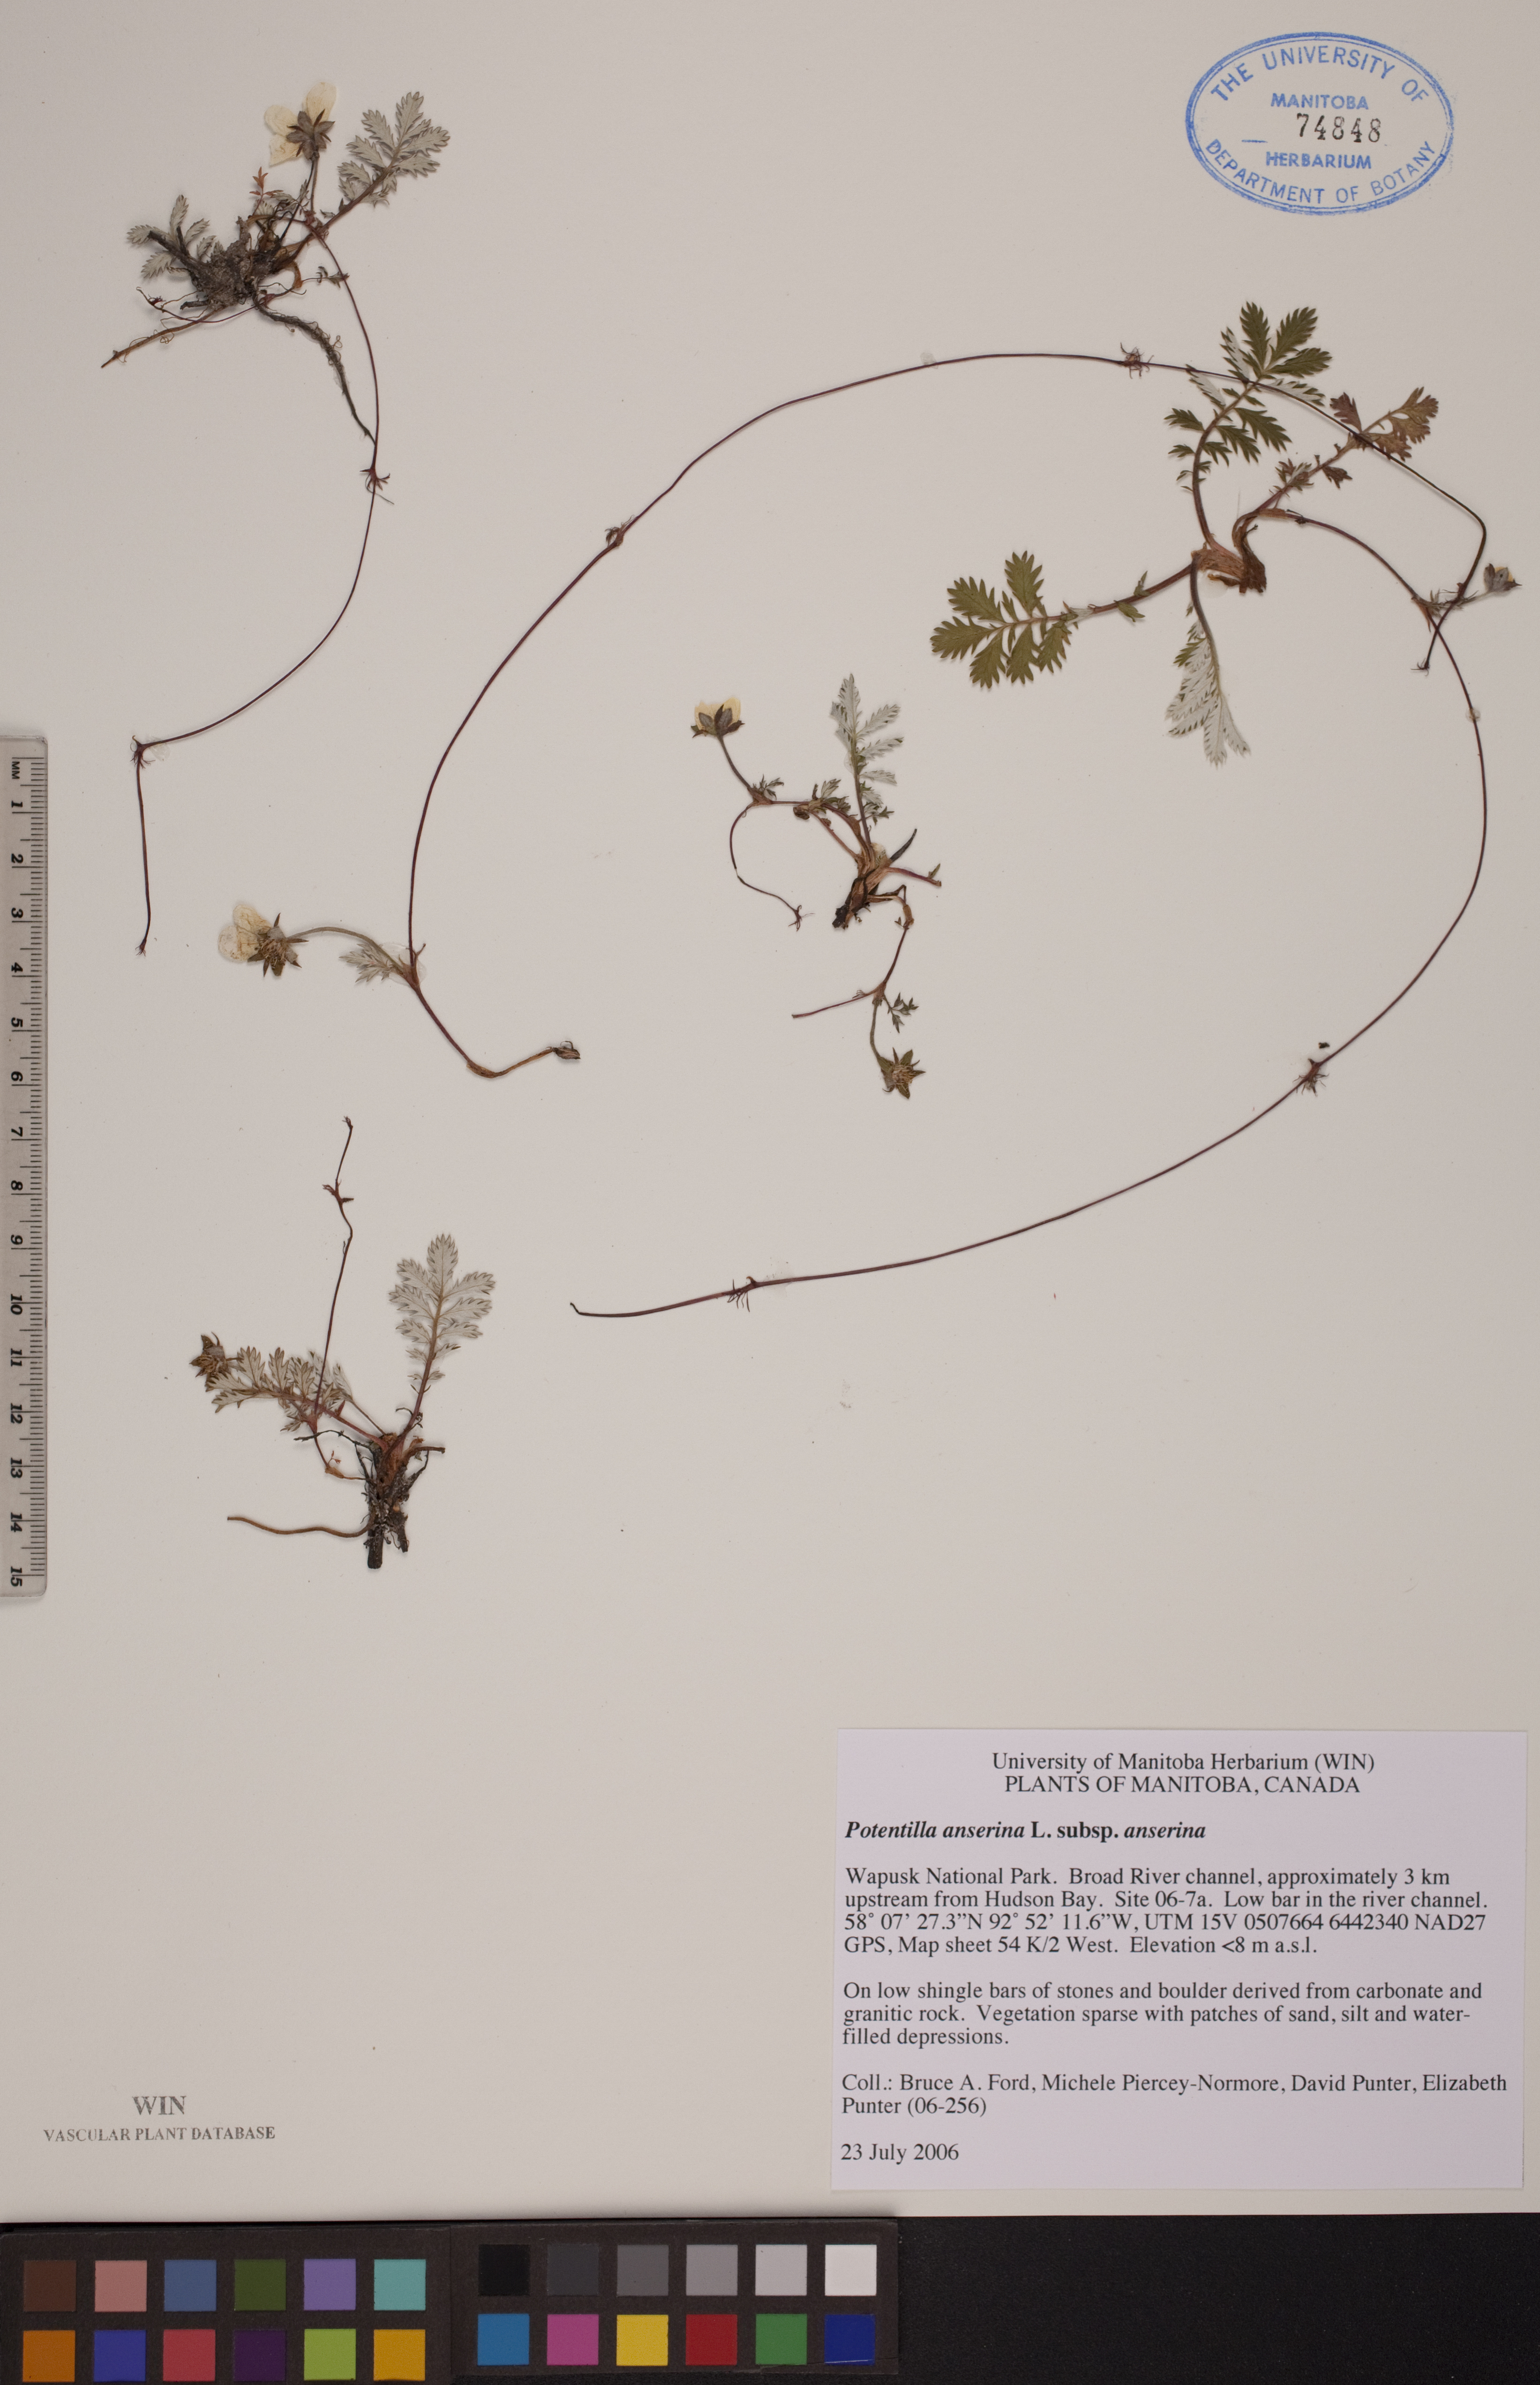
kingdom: Plantae
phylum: Tracheophyta
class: Magnoliopsida
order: Rosales
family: Rosaceae
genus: Argentina
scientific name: Argentina anserina
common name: Common silverweed
